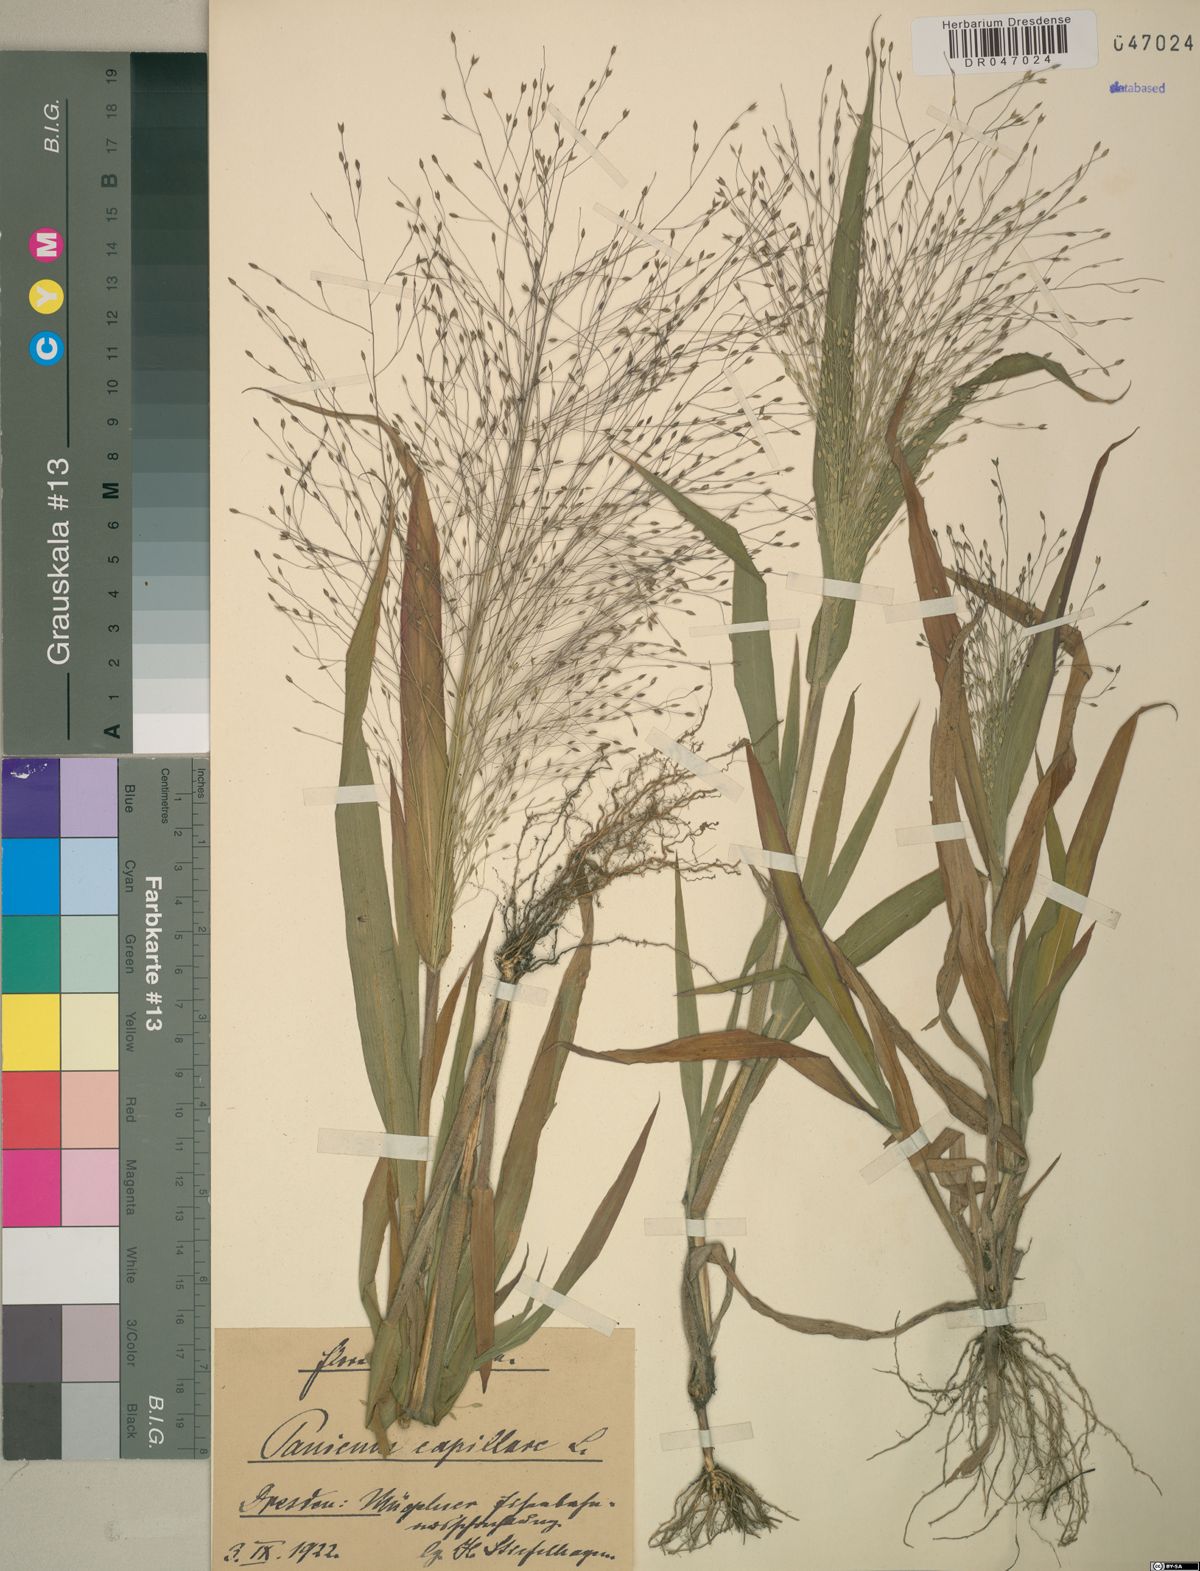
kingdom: Plantae
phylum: Tracheophyta
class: Liliopsida
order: Poales
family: Poaceae
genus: Panicum
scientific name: Panicum capillare
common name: Witch-grass
